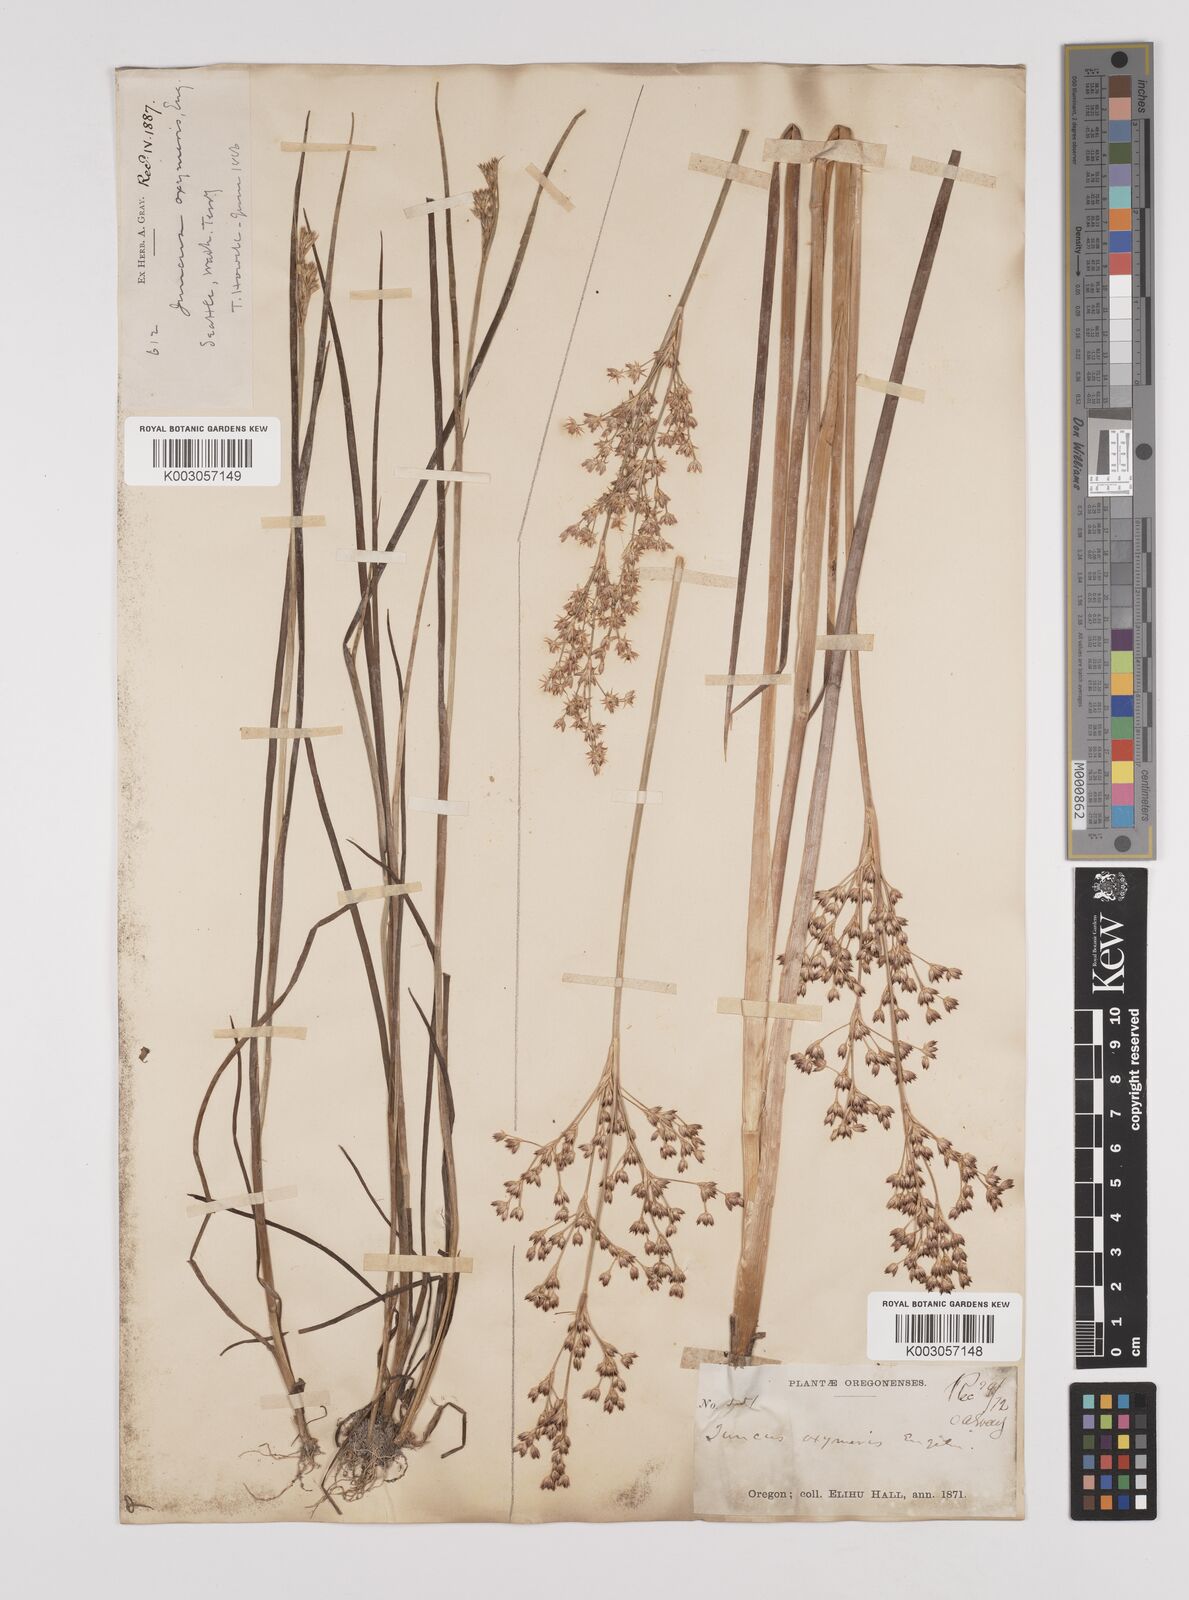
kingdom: Plantae
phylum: Tracheophyta
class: Liliopsida
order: Poales
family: Juncaceae
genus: Juncus
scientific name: Juncus oxymeris
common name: Pointed rush
